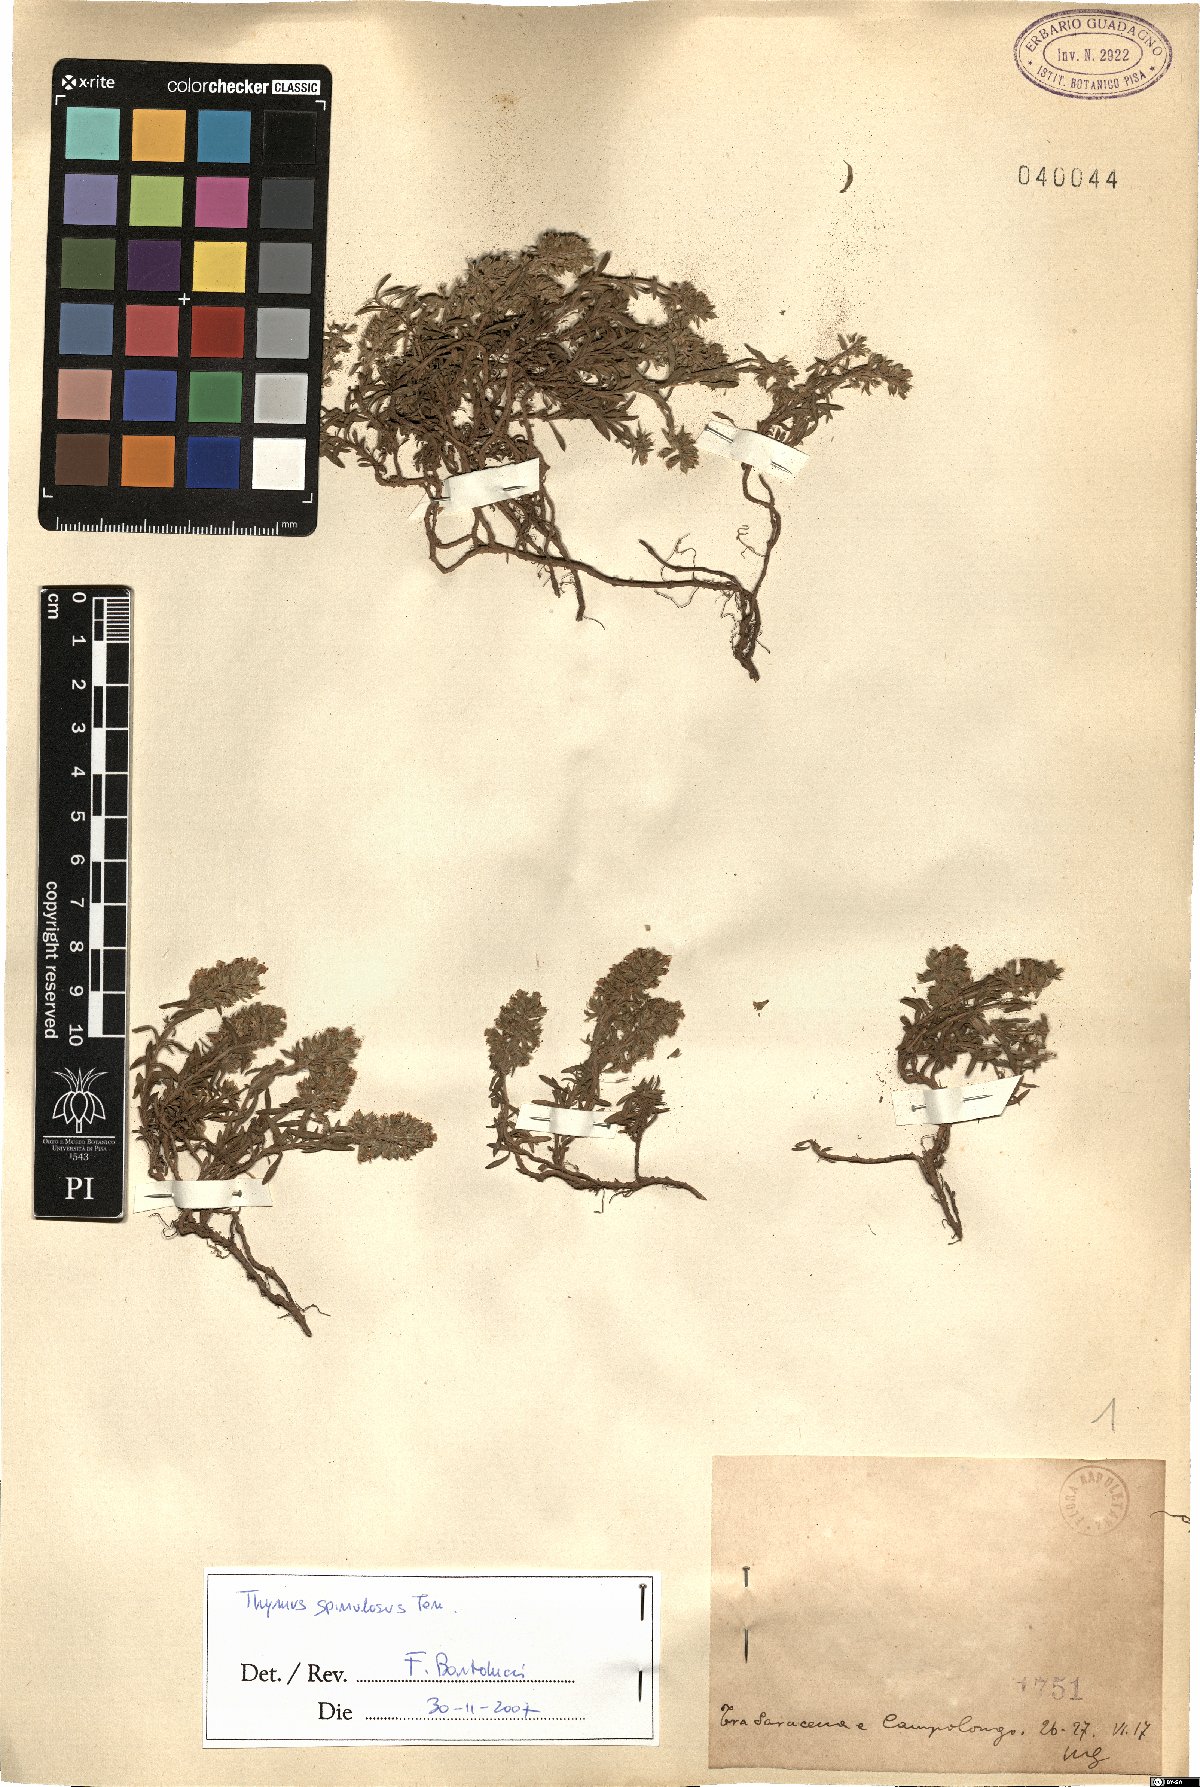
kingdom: Plantae
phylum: Tracheophyta
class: Magnoliopsida
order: Lamiales
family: Lamiaceae
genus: Thymus
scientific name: Thymus spinulosus
